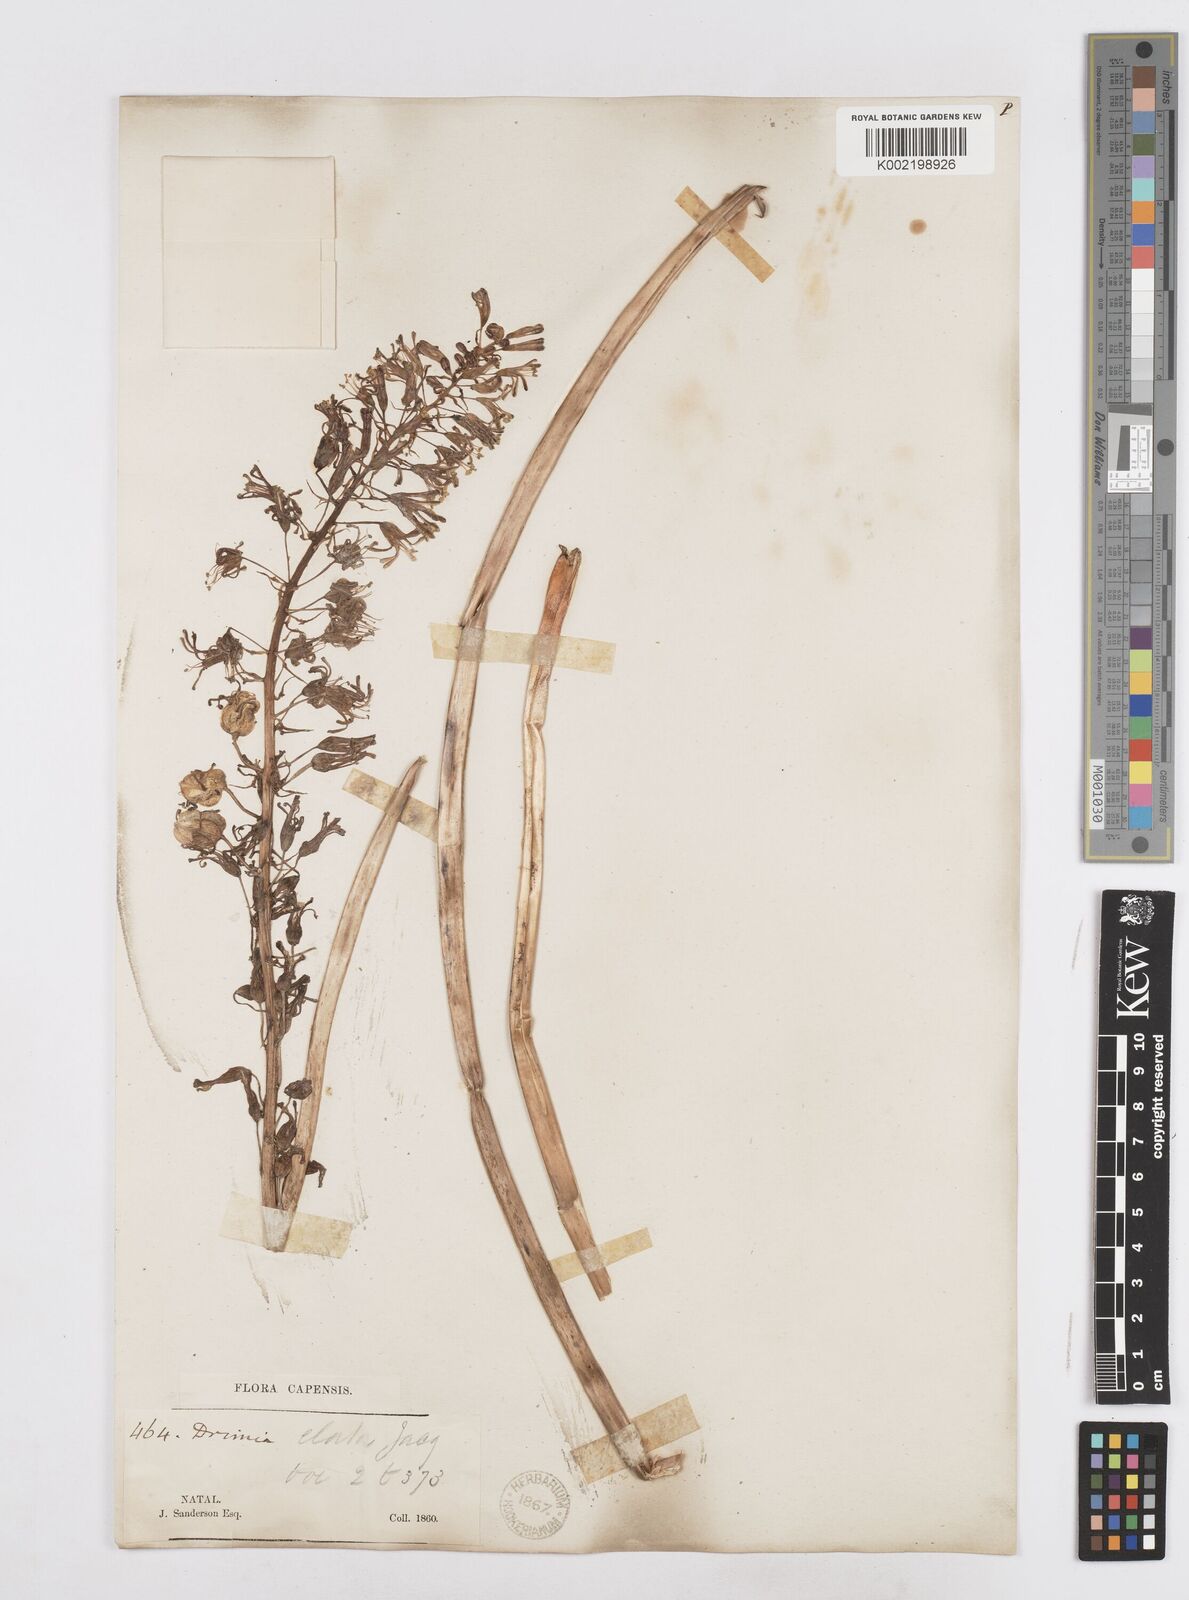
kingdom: Plantae
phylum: Tracheophyta
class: Liliopsida
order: Asparagales
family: Asparagaceae
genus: Drimia
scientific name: Drimia elata
